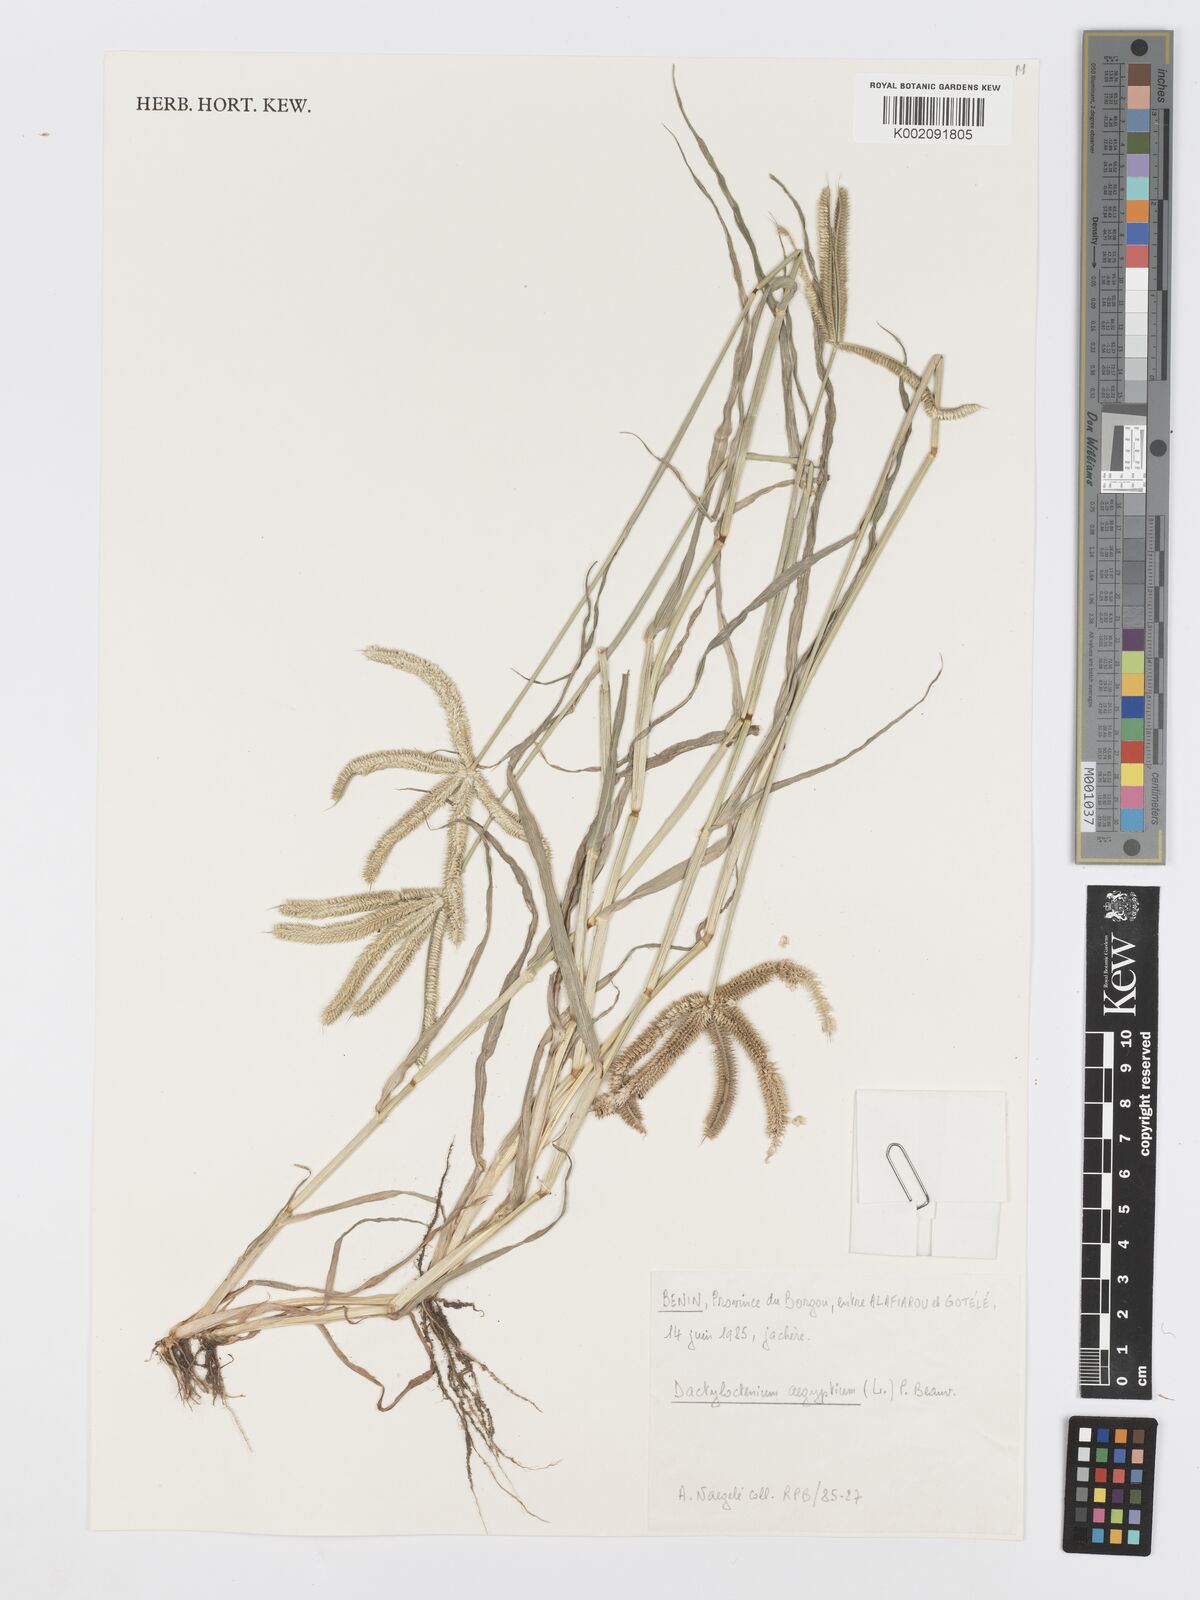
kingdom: Plantae
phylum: Tracheophyta
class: Liliopsida
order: Poales
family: Poaceae
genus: Dactyloctenium
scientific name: Dactyloctenium aegyptium
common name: Egyptian grass
